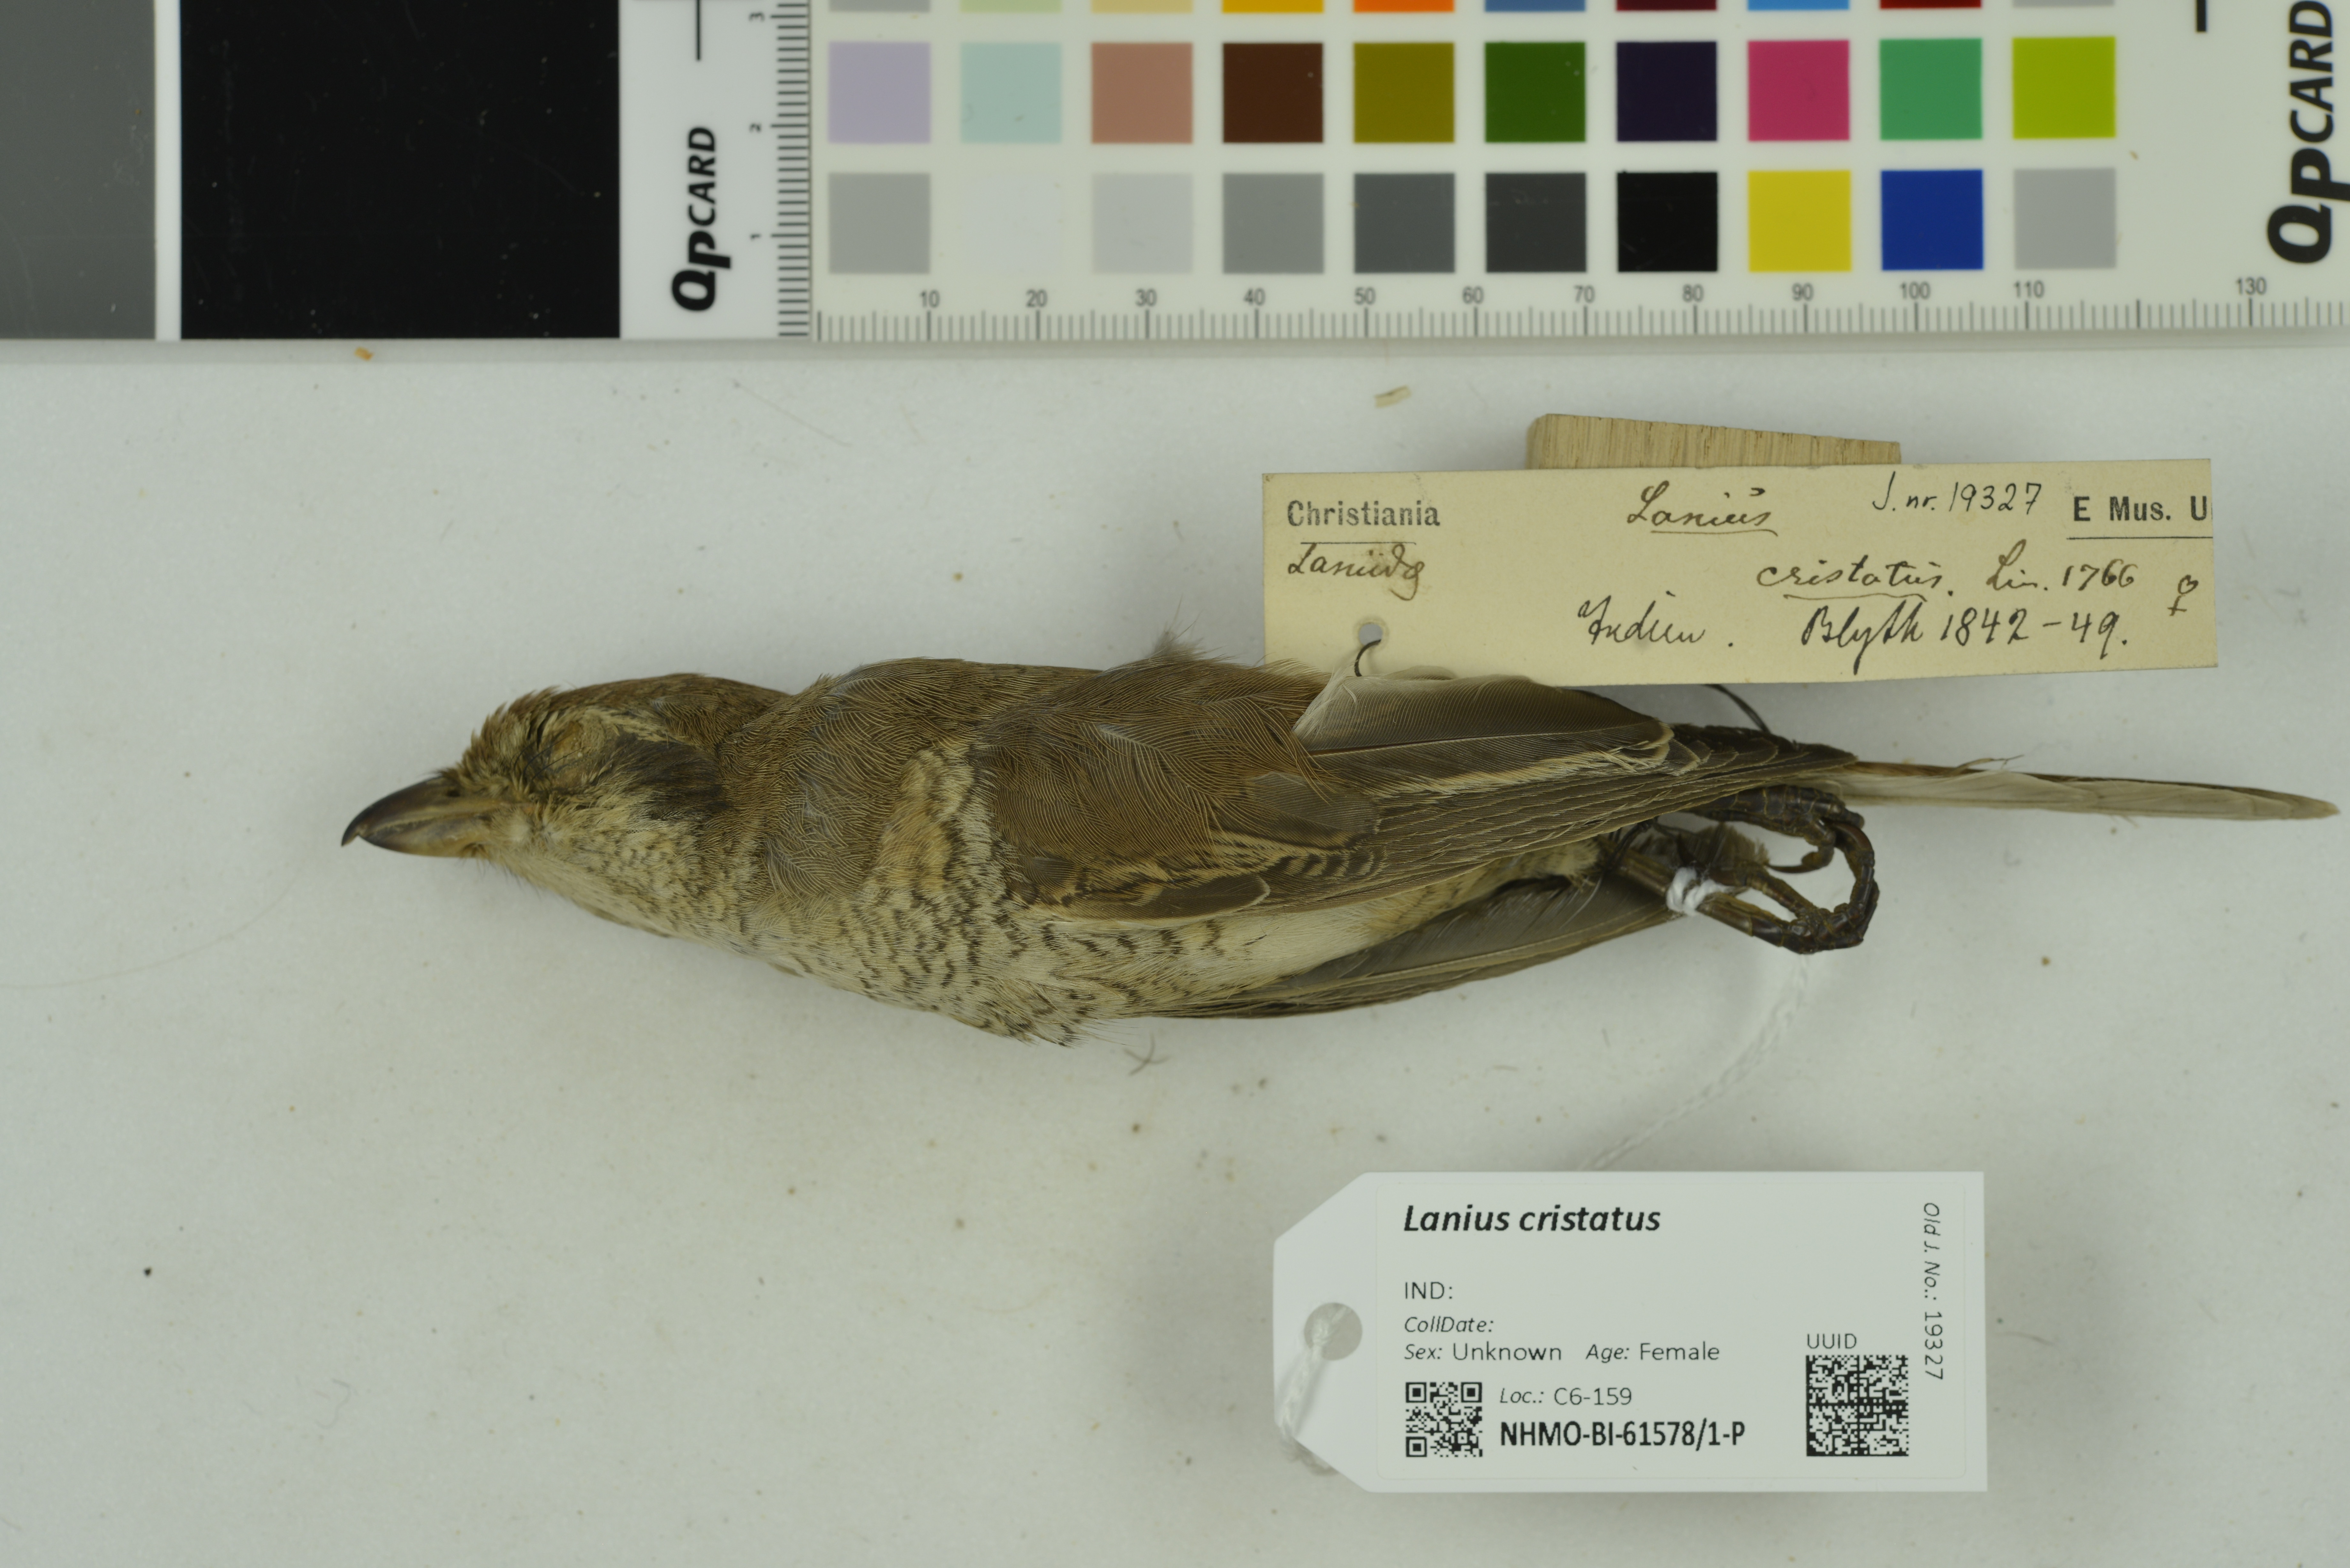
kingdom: Animalia
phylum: Chordata
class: Aves
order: Passeriformes
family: Laniidae
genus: Lanius
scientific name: Lanius cristatus
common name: Brown shrike
